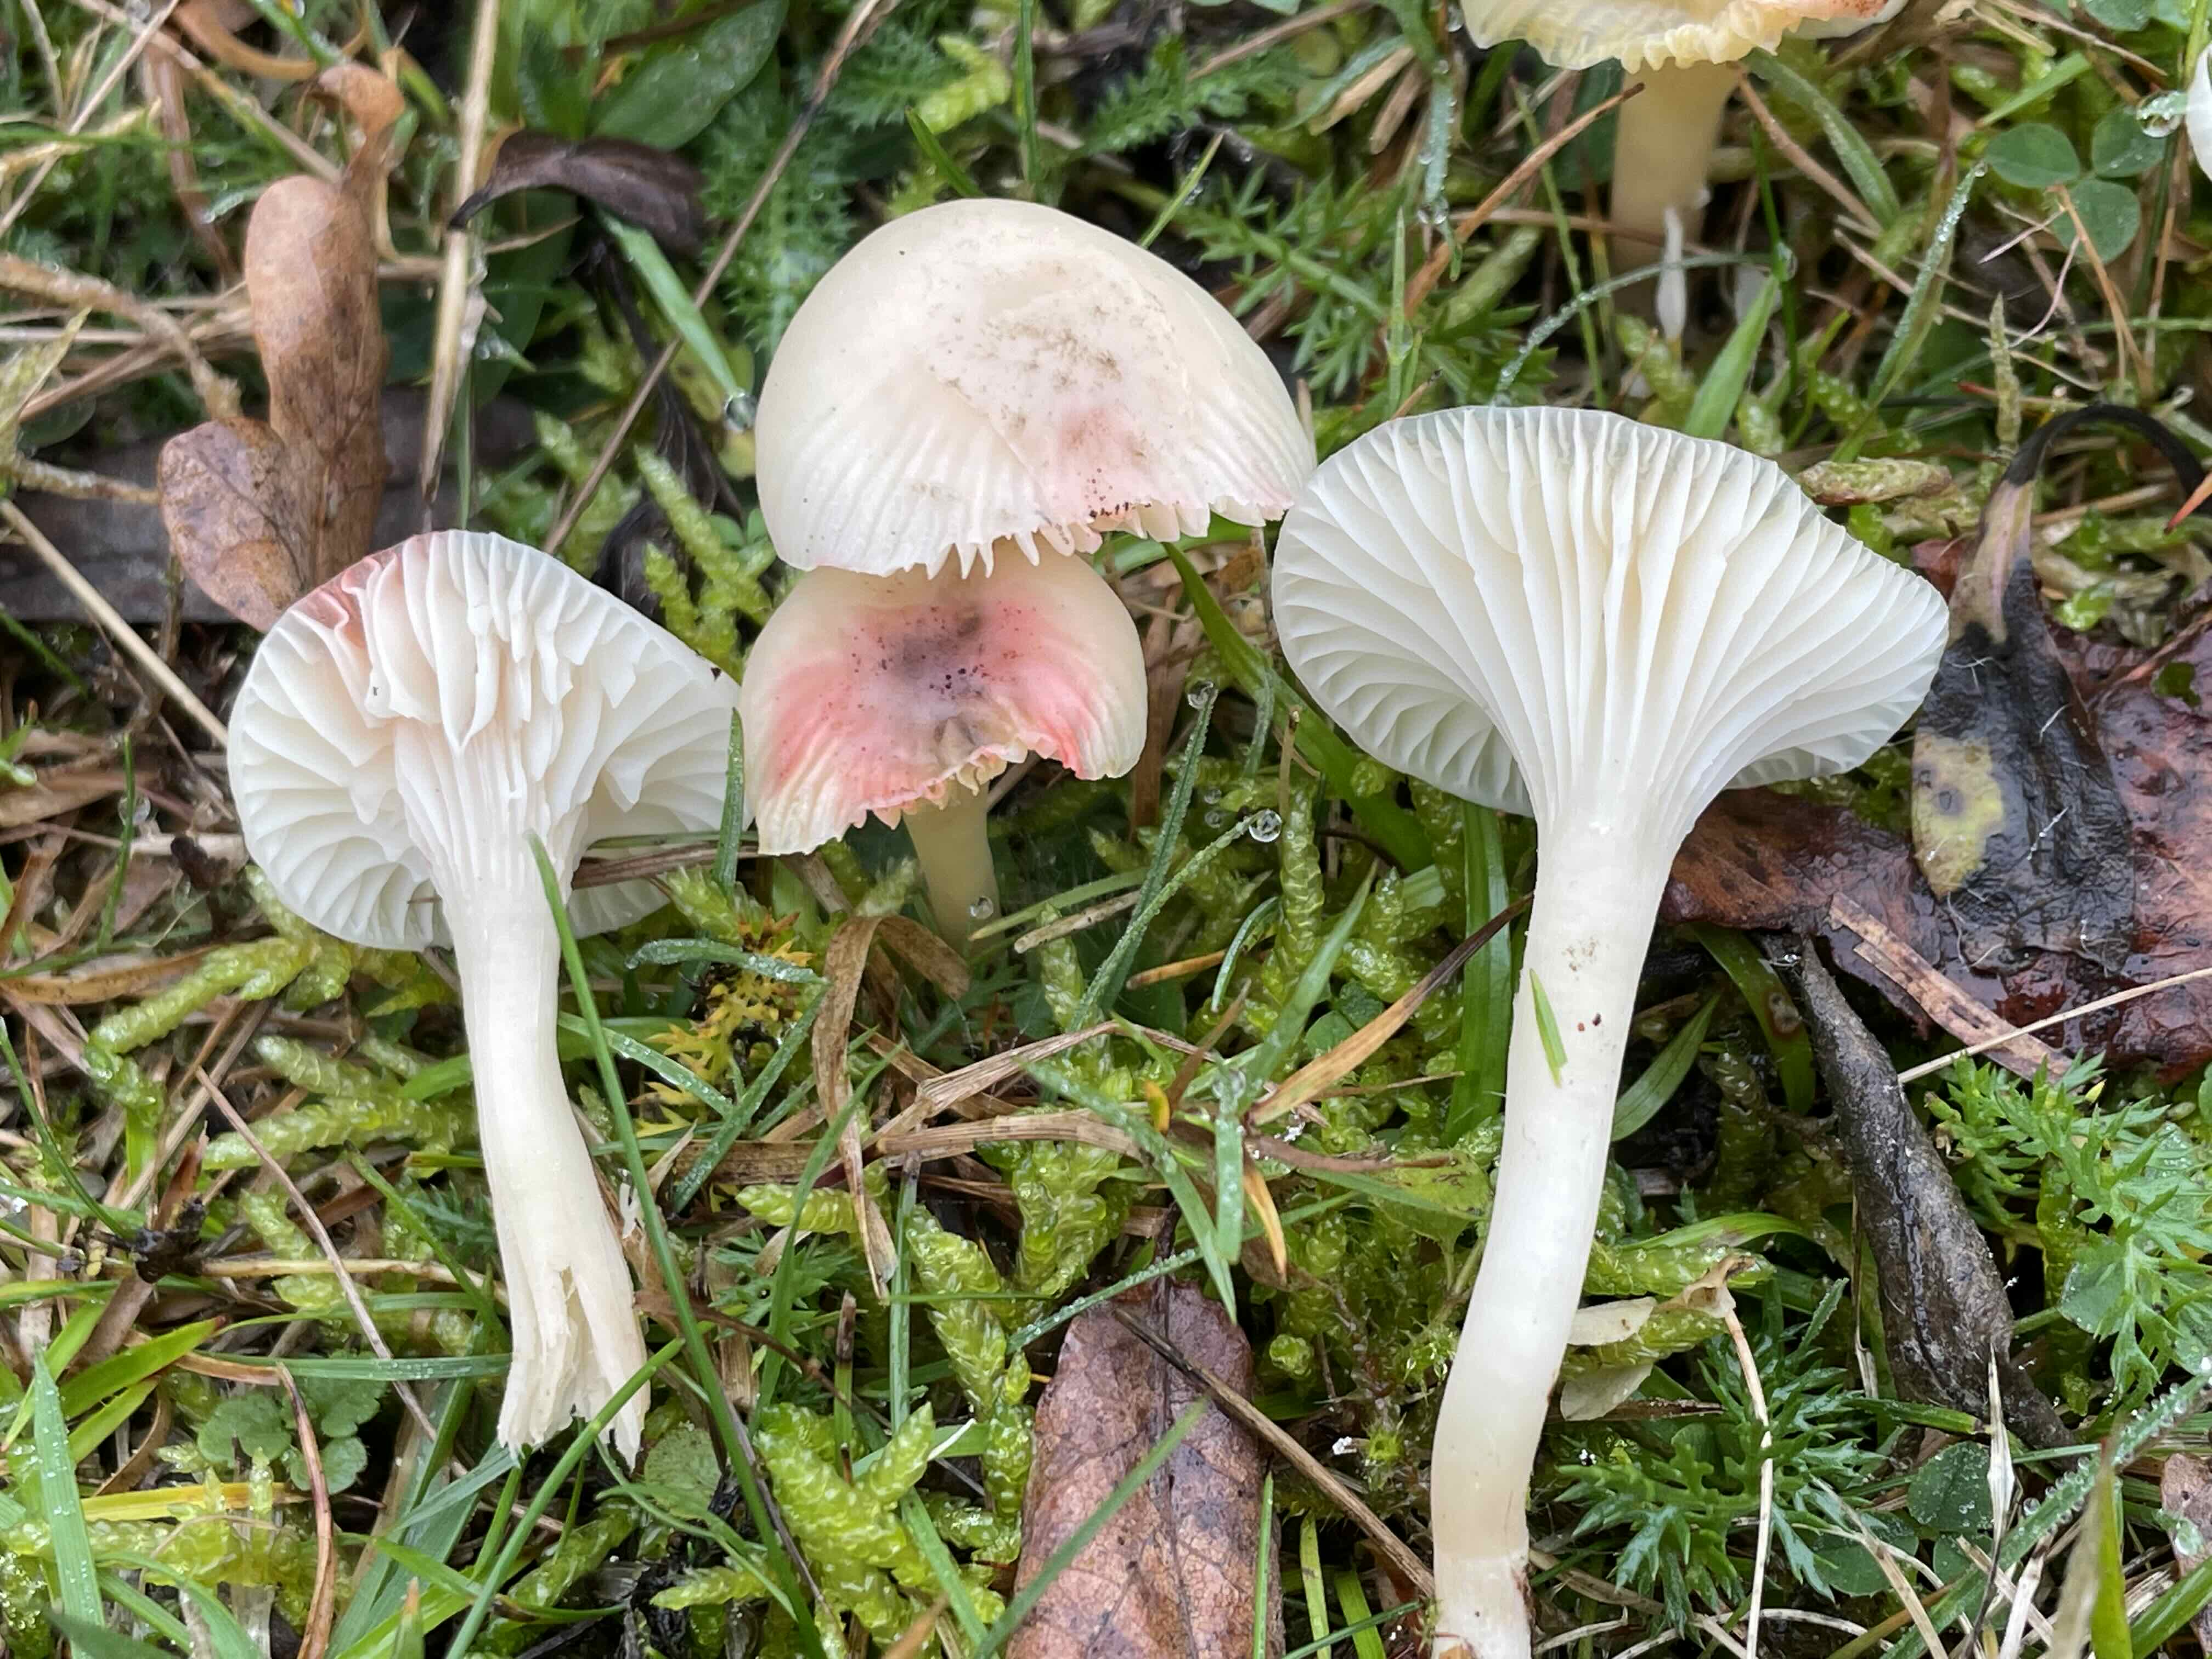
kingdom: Fungi
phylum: Basidiomycota
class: Agaricomycetes
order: Agaricales
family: Hygrophoraceae
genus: Cuphophyllus
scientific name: Cuphophyllus virgineus
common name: snehvid vokshat
